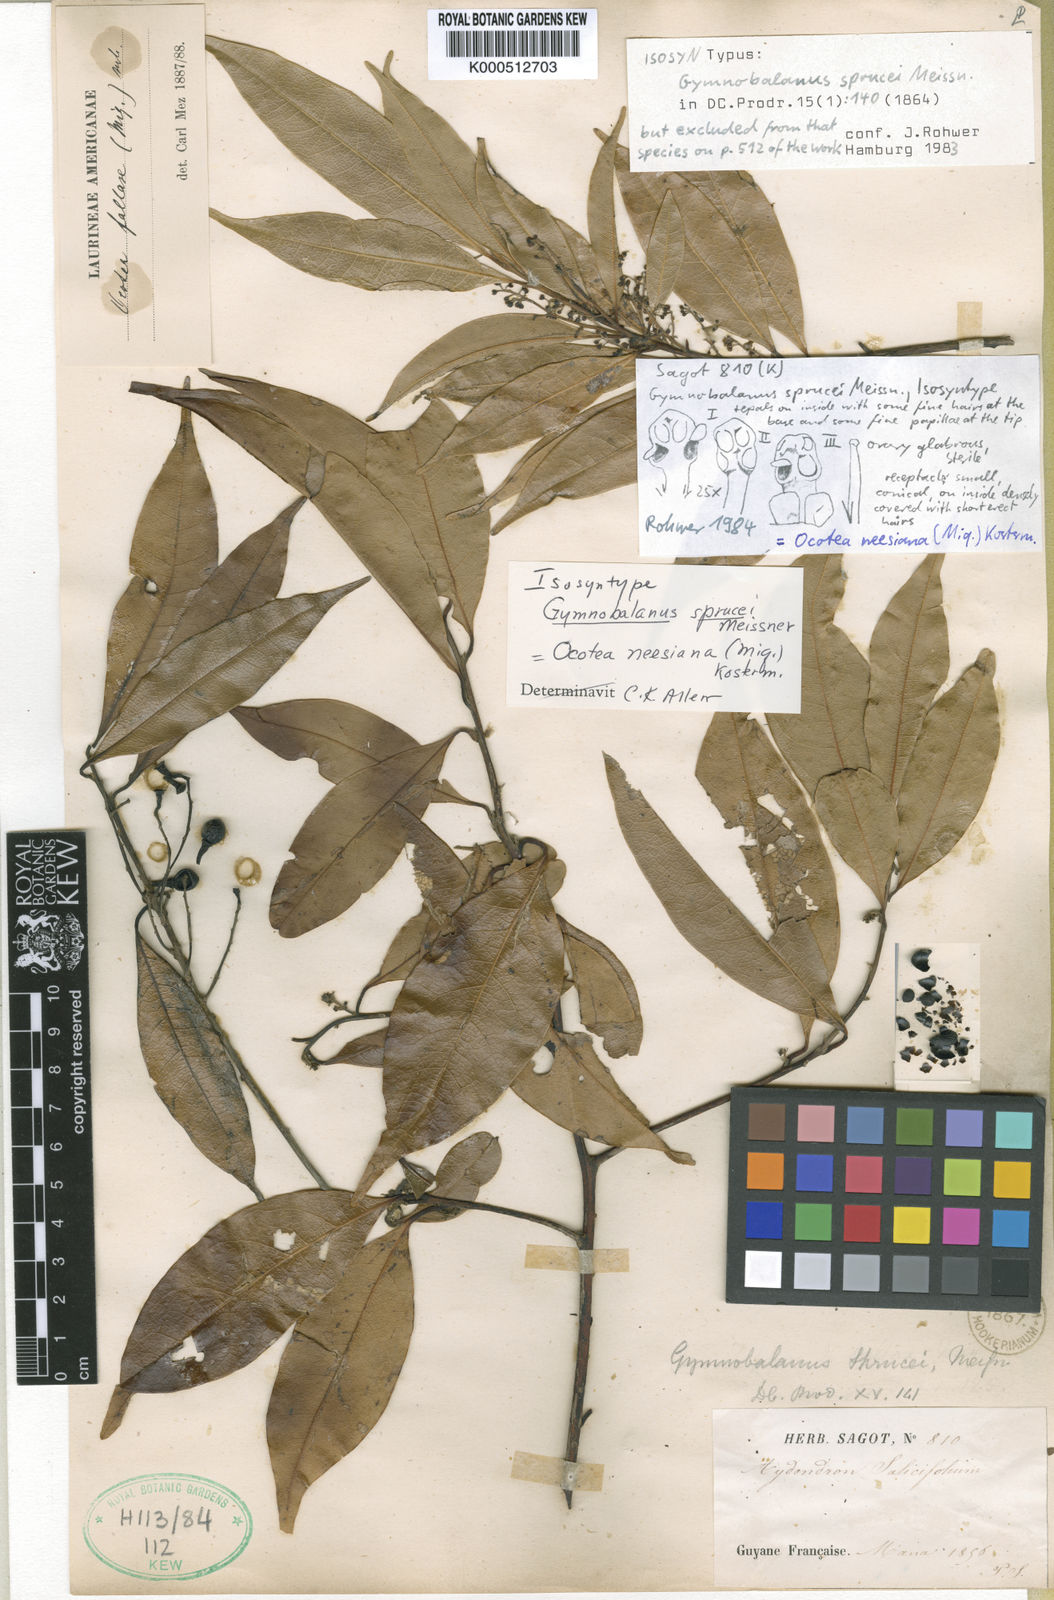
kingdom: Plantae
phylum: Tracheophyta
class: Magnoliopsida
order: Laurales
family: Lauraceae
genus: Ocotea
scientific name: Ocotea neesiana
